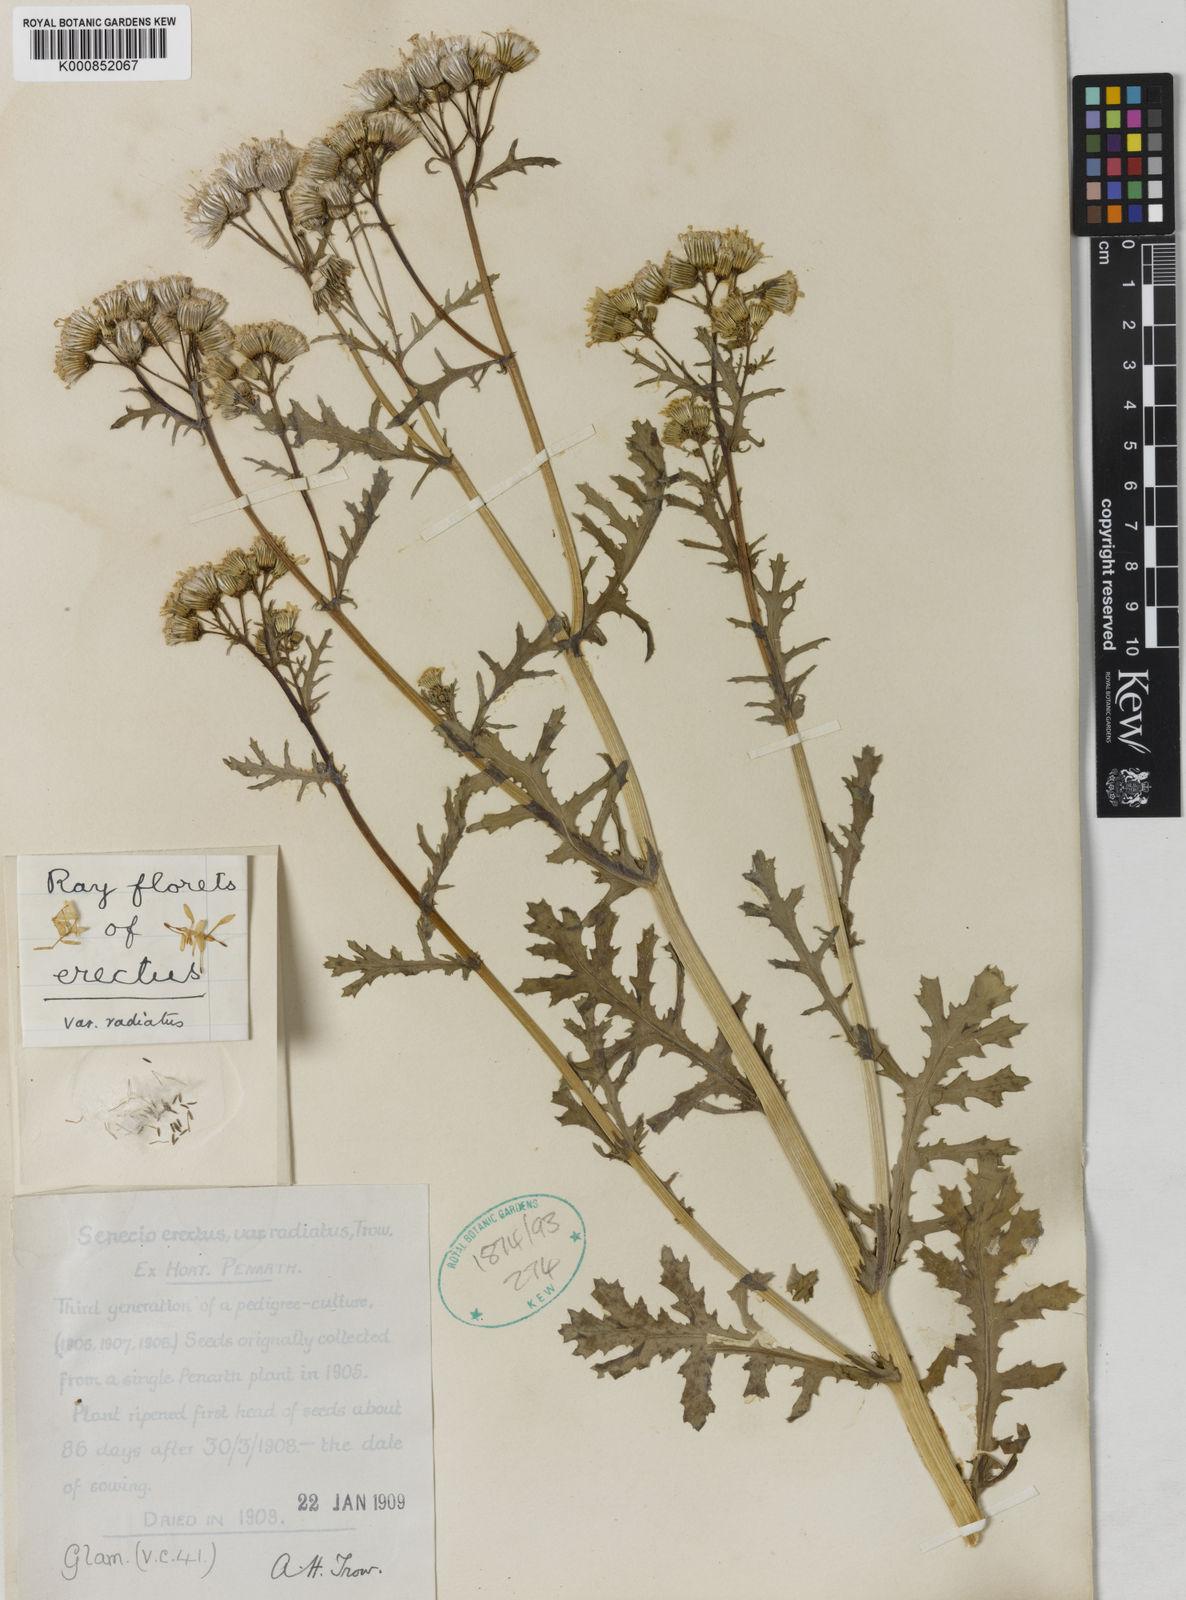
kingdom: Plantae
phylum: Tracheophyta
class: Magnoliopsida
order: Asterales
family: Asteraceae
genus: Senecio
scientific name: Senecio vulgaris
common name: Old-man-in-the-spring
